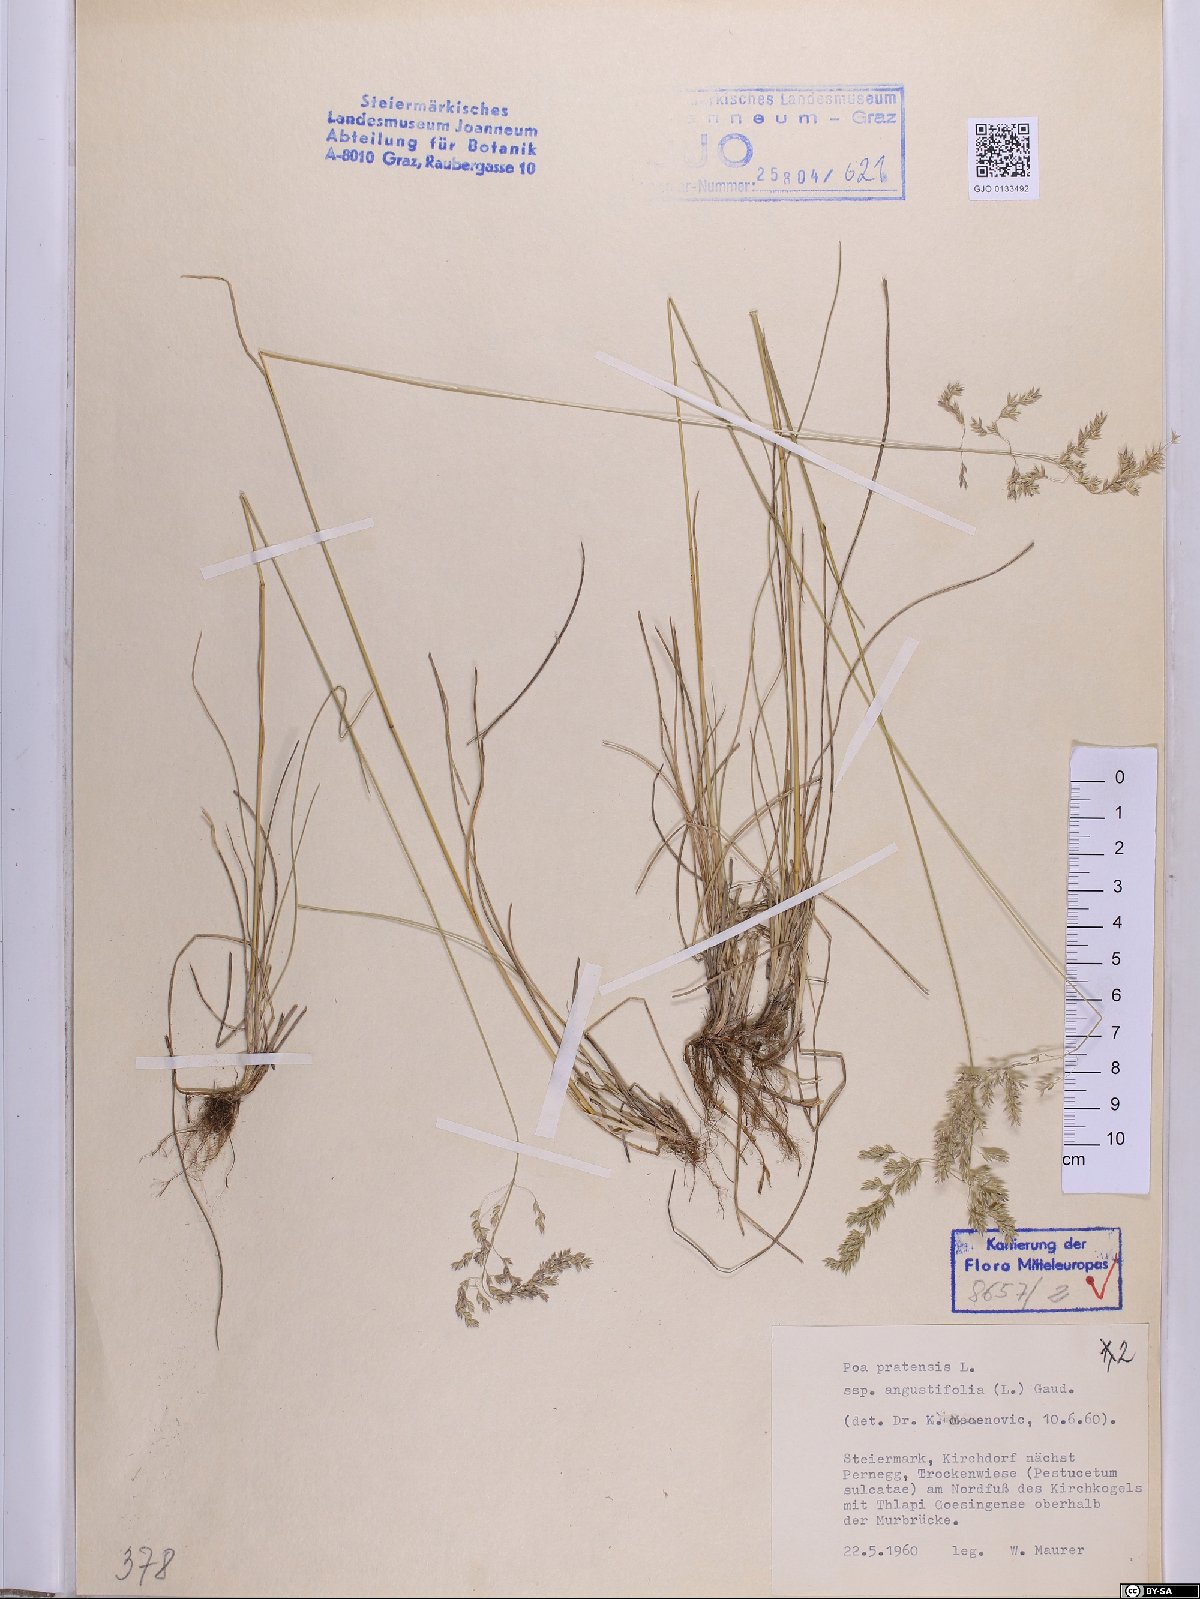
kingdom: Plantae
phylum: Tracheophyta
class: Liliopsida
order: Poales
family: Poaceae
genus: Poa
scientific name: Poa angustifolia
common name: Narrow-leaved meadow-grass
